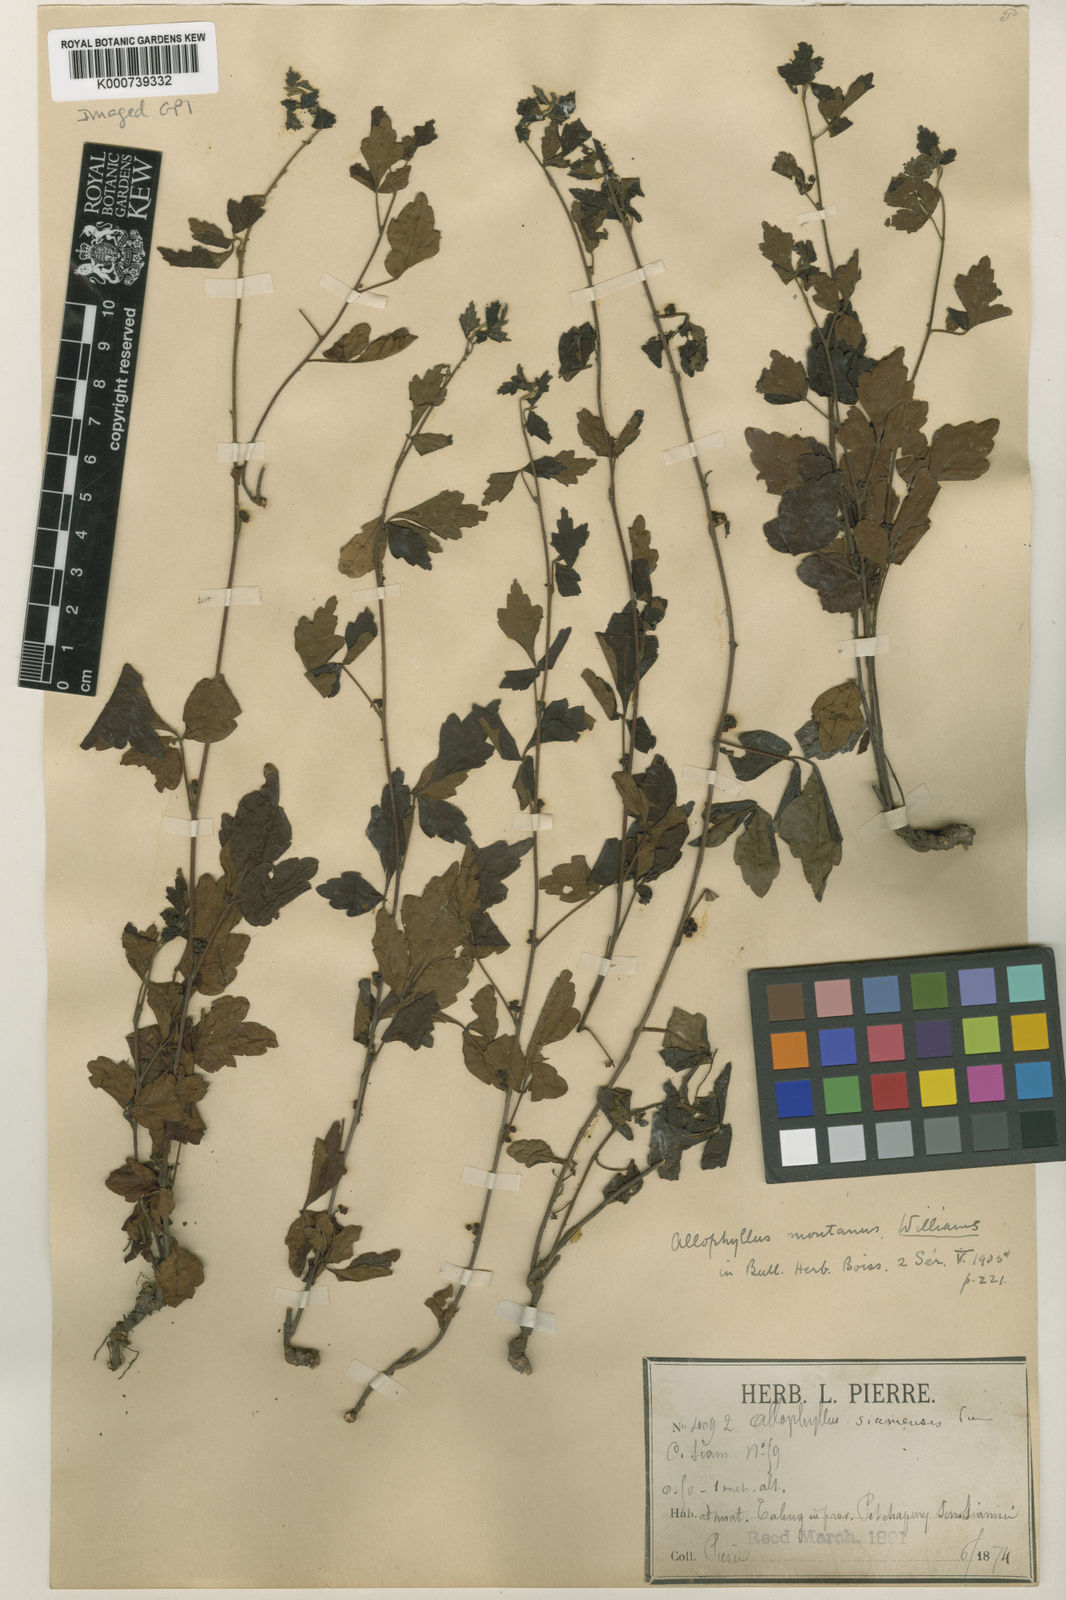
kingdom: Plantae
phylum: Tracheophyta
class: Magnoliopsida
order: Sapindales
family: Sapindaceae
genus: Allophylus
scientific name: Allophylus montanus
